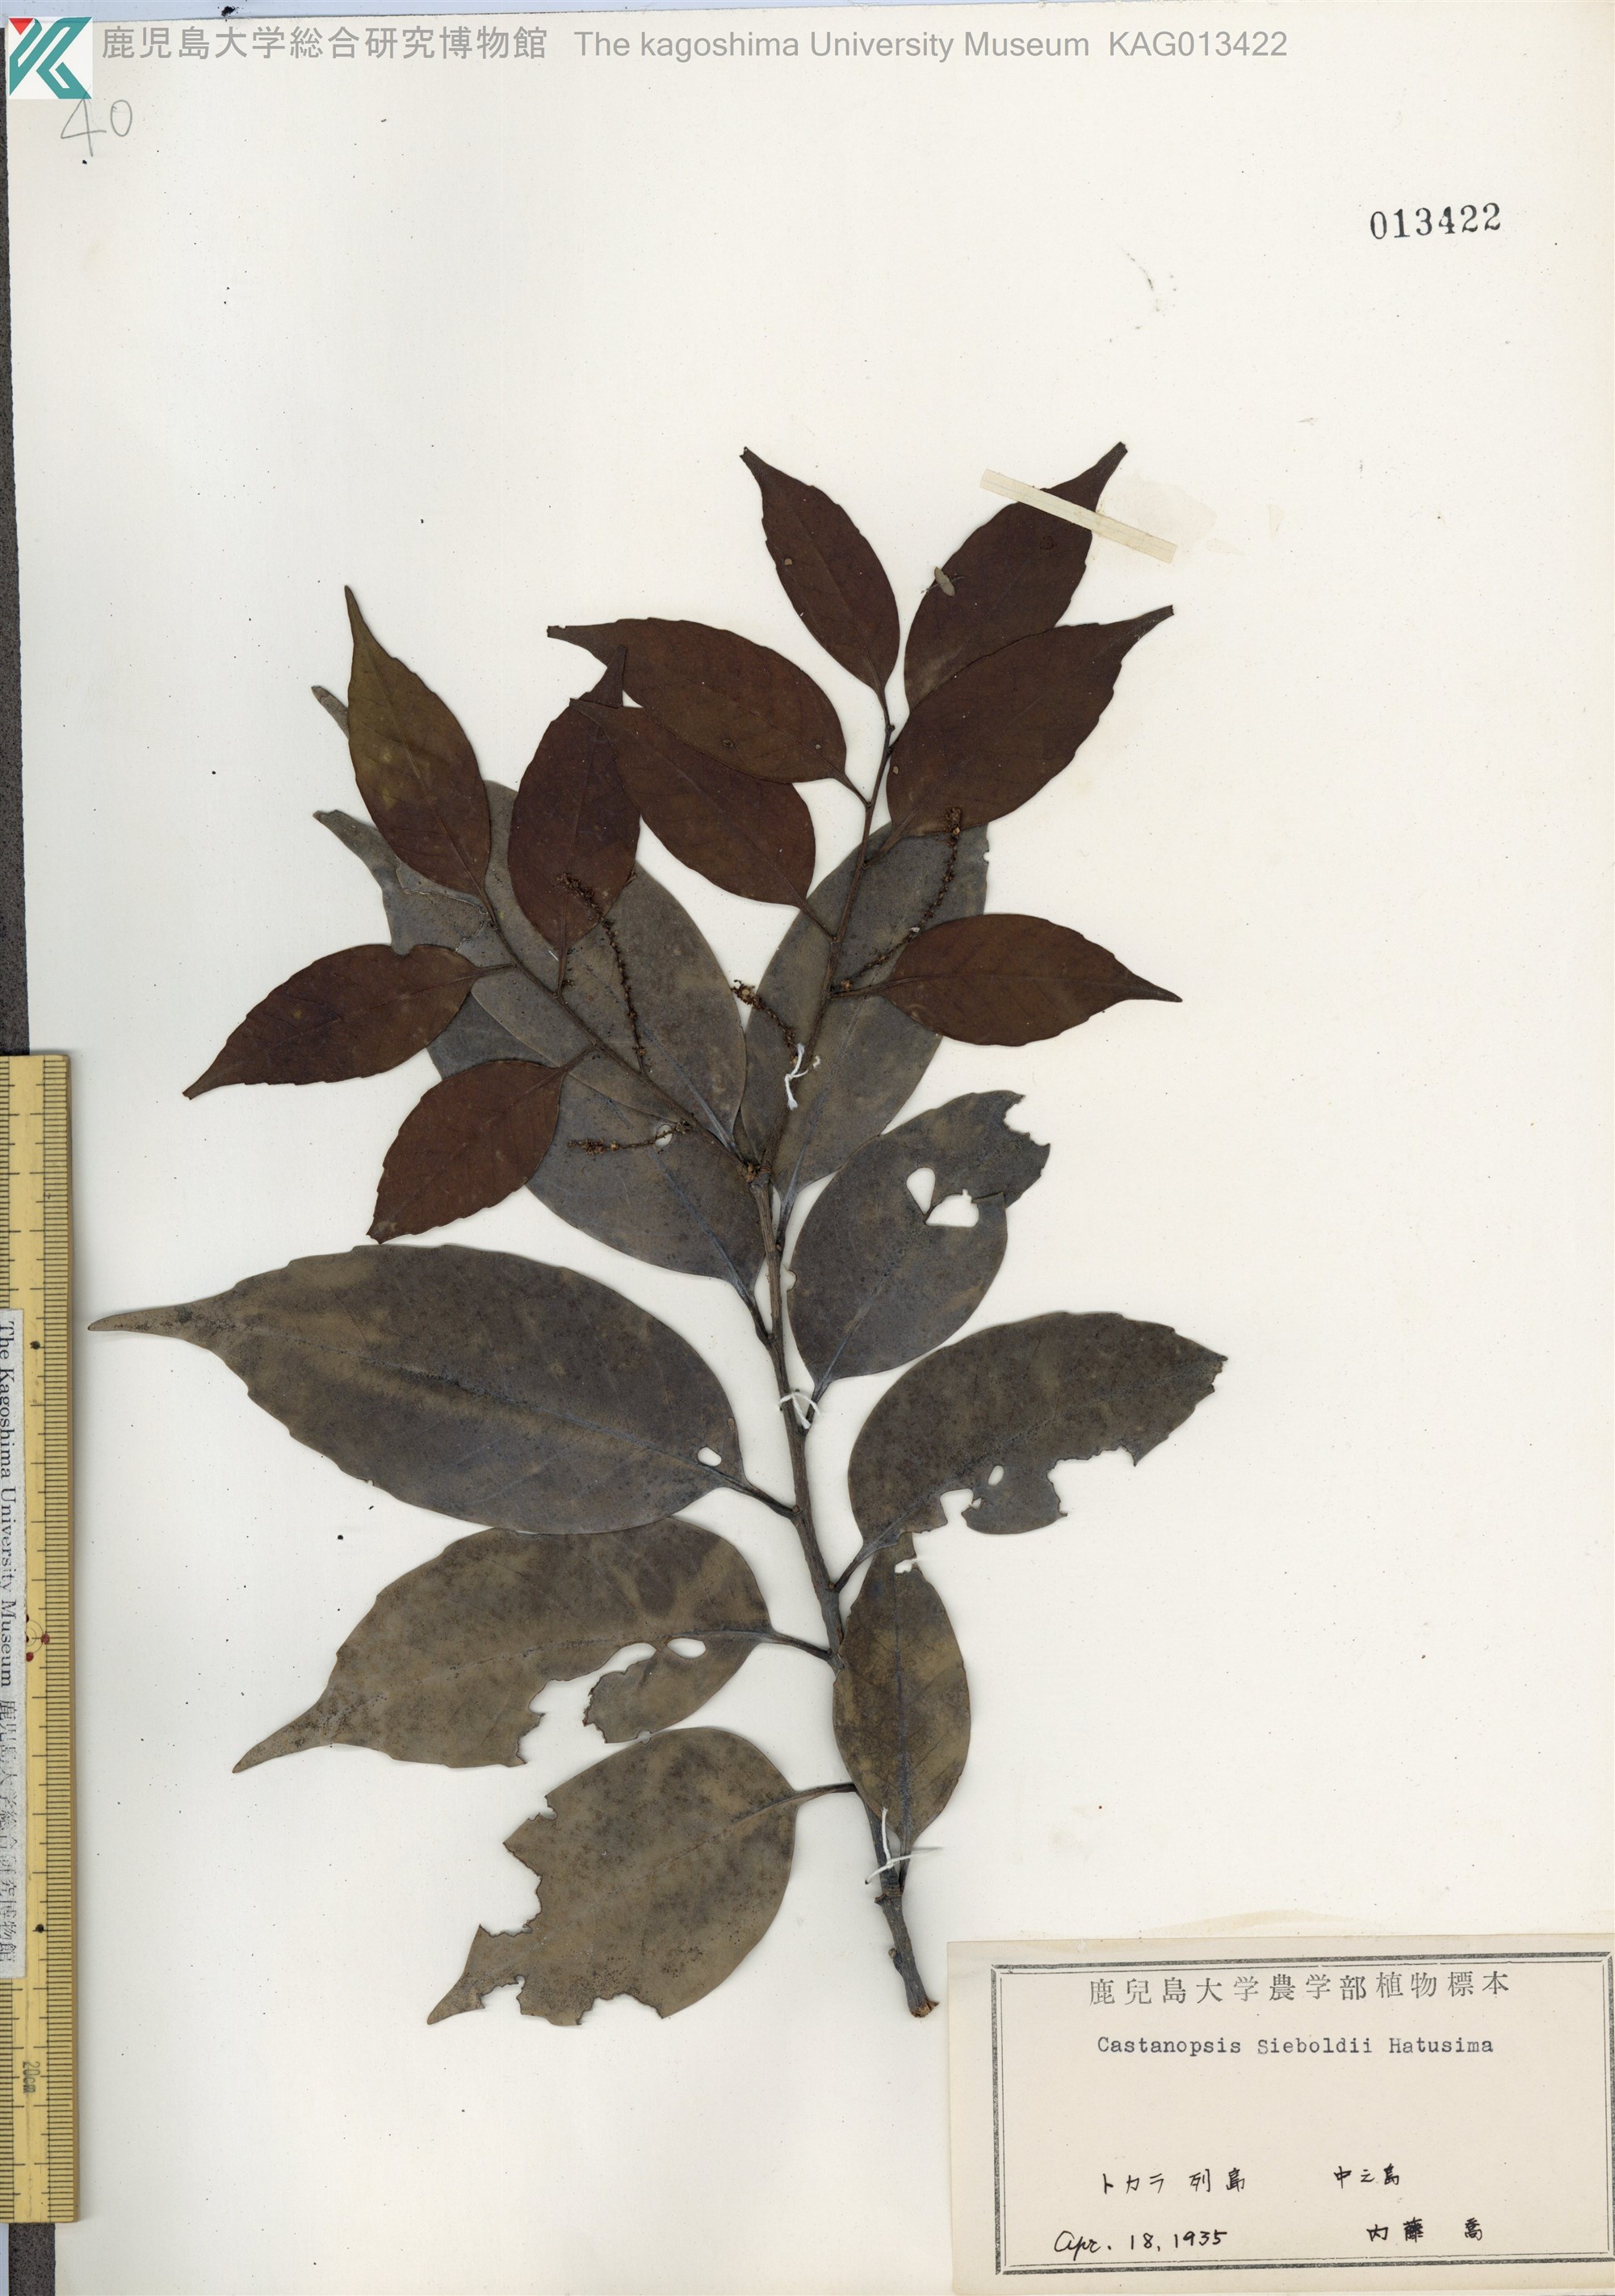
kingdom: Plantae
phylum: Tracheophyta
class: Magnoliopsida
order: Fagales
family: Fagaceae
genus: Castanopsis
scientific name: Castanopsis sieboldii
